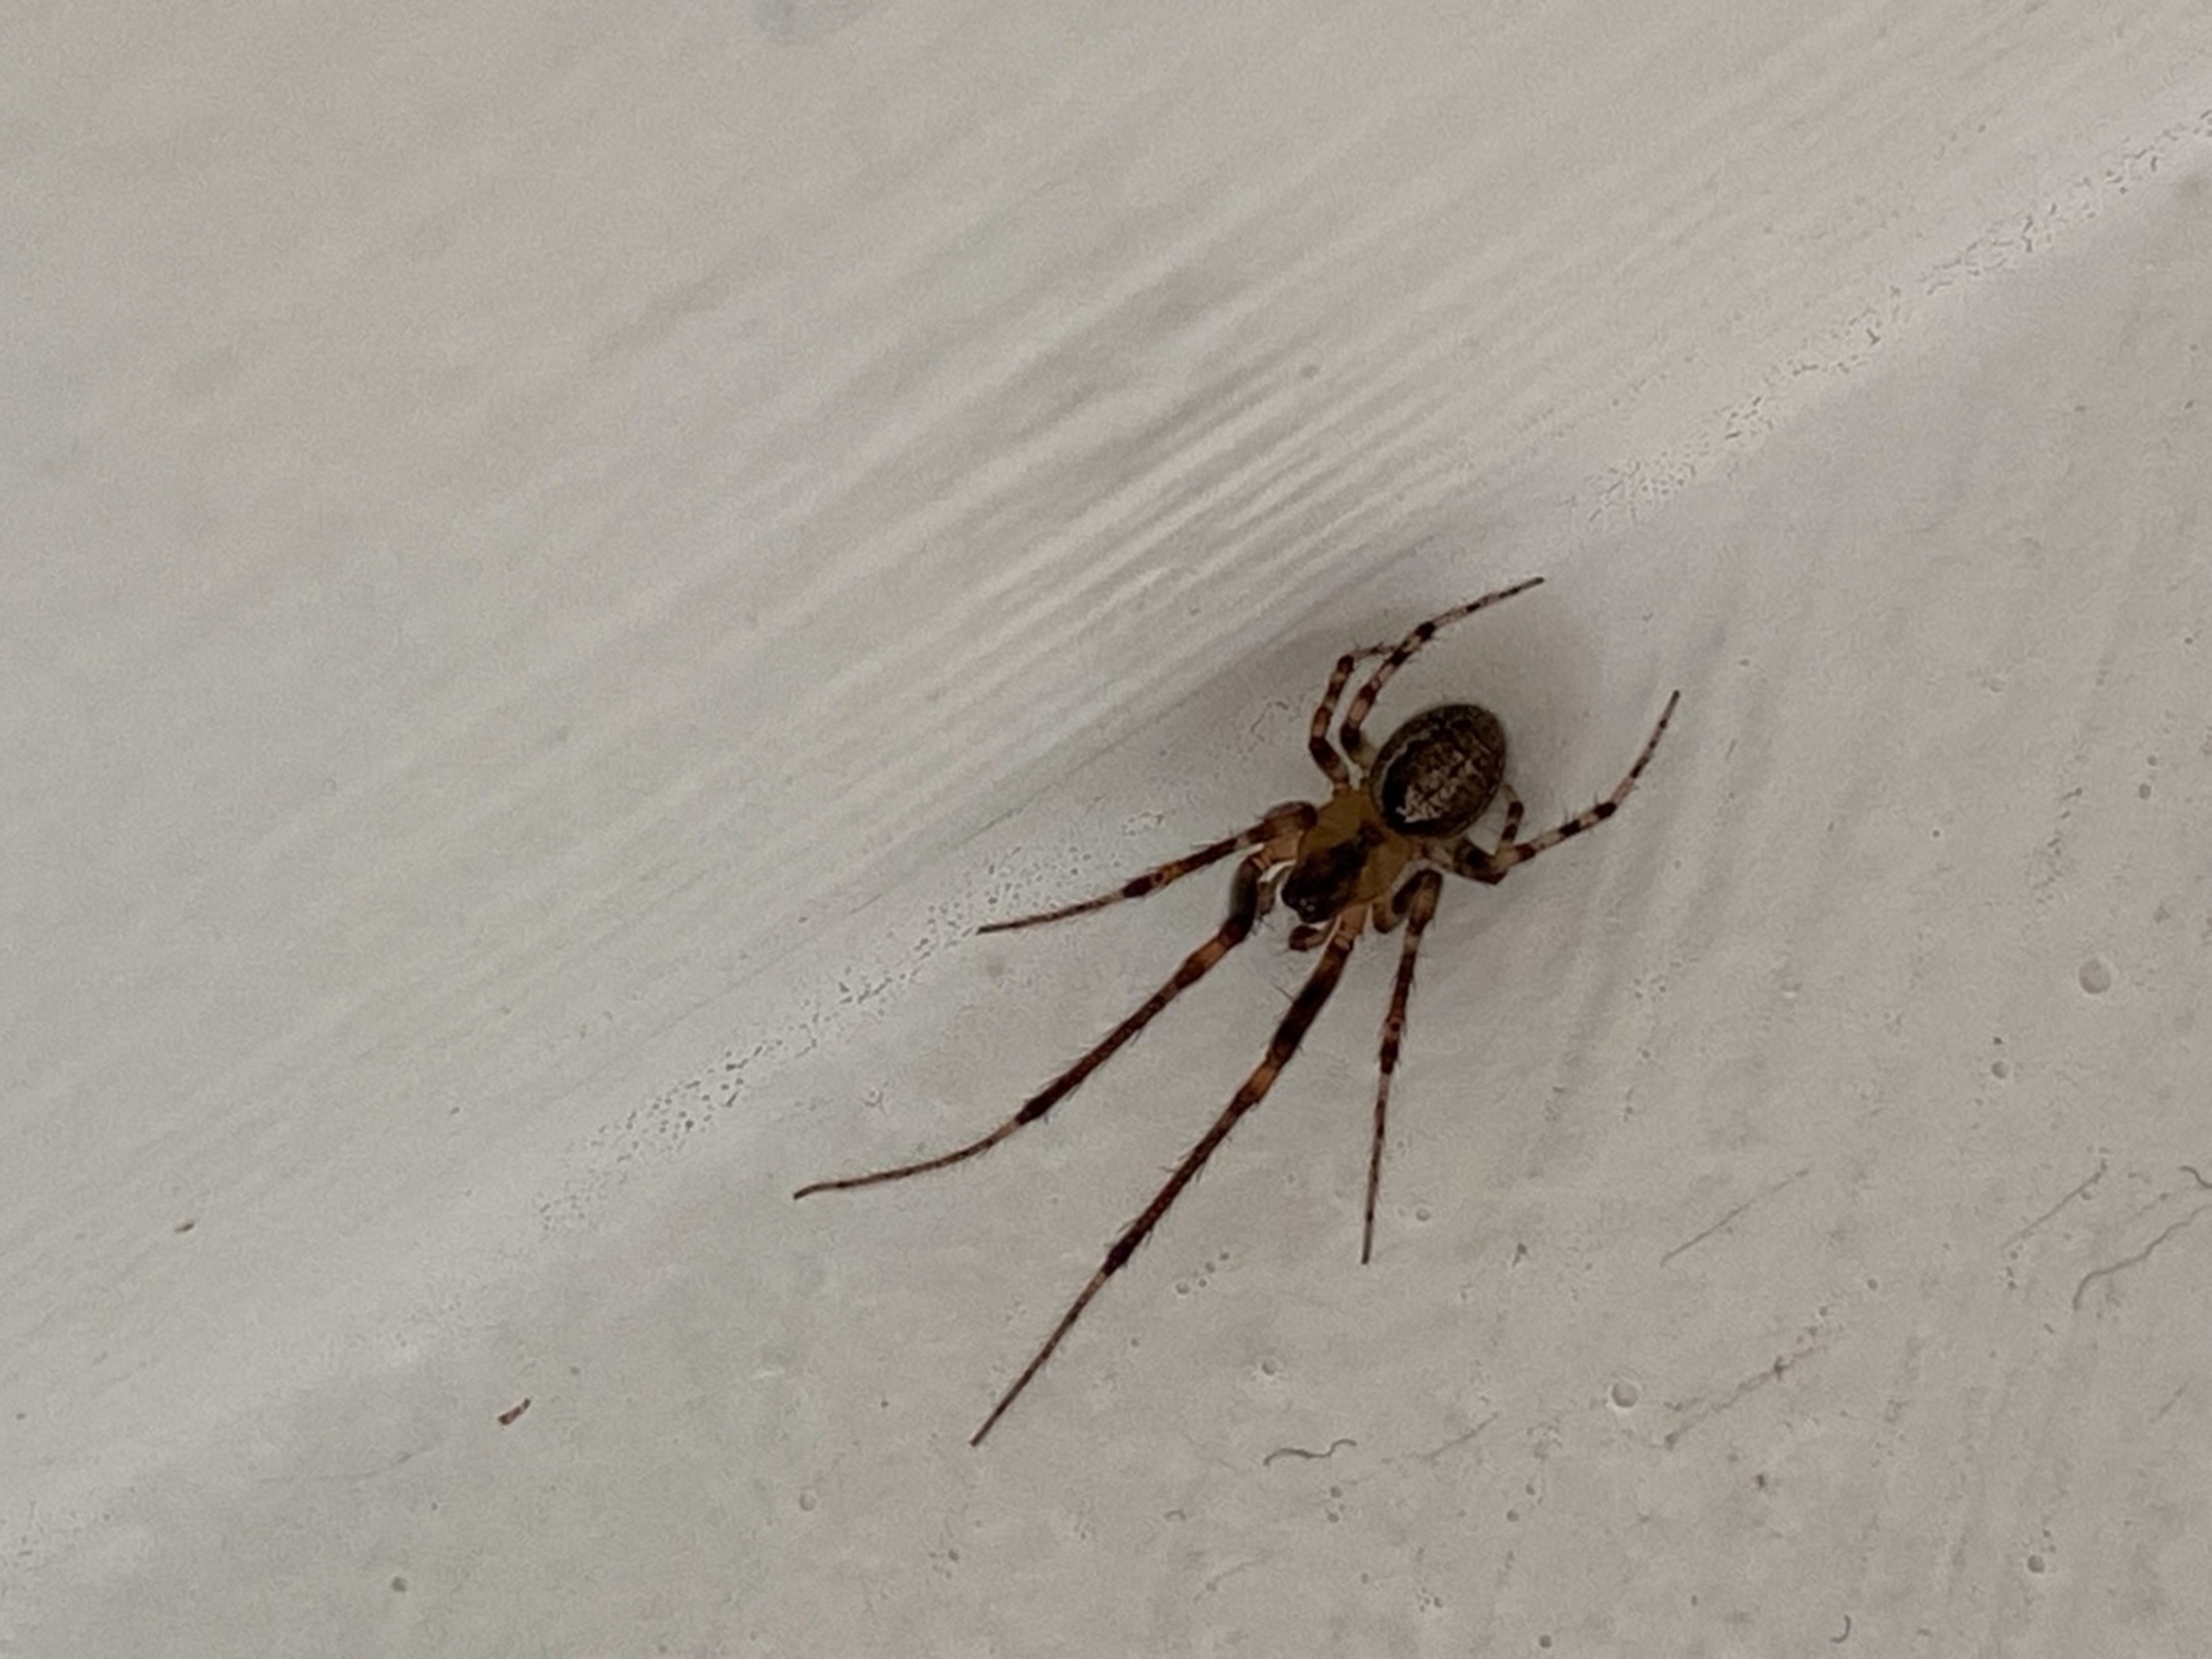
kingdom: Animalia
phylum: Arthropoda
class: Arachnida
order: Araneae
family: Araneidae
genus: Zygiella
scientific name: Zygiella x-notata
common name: Grå sektoredderkop
